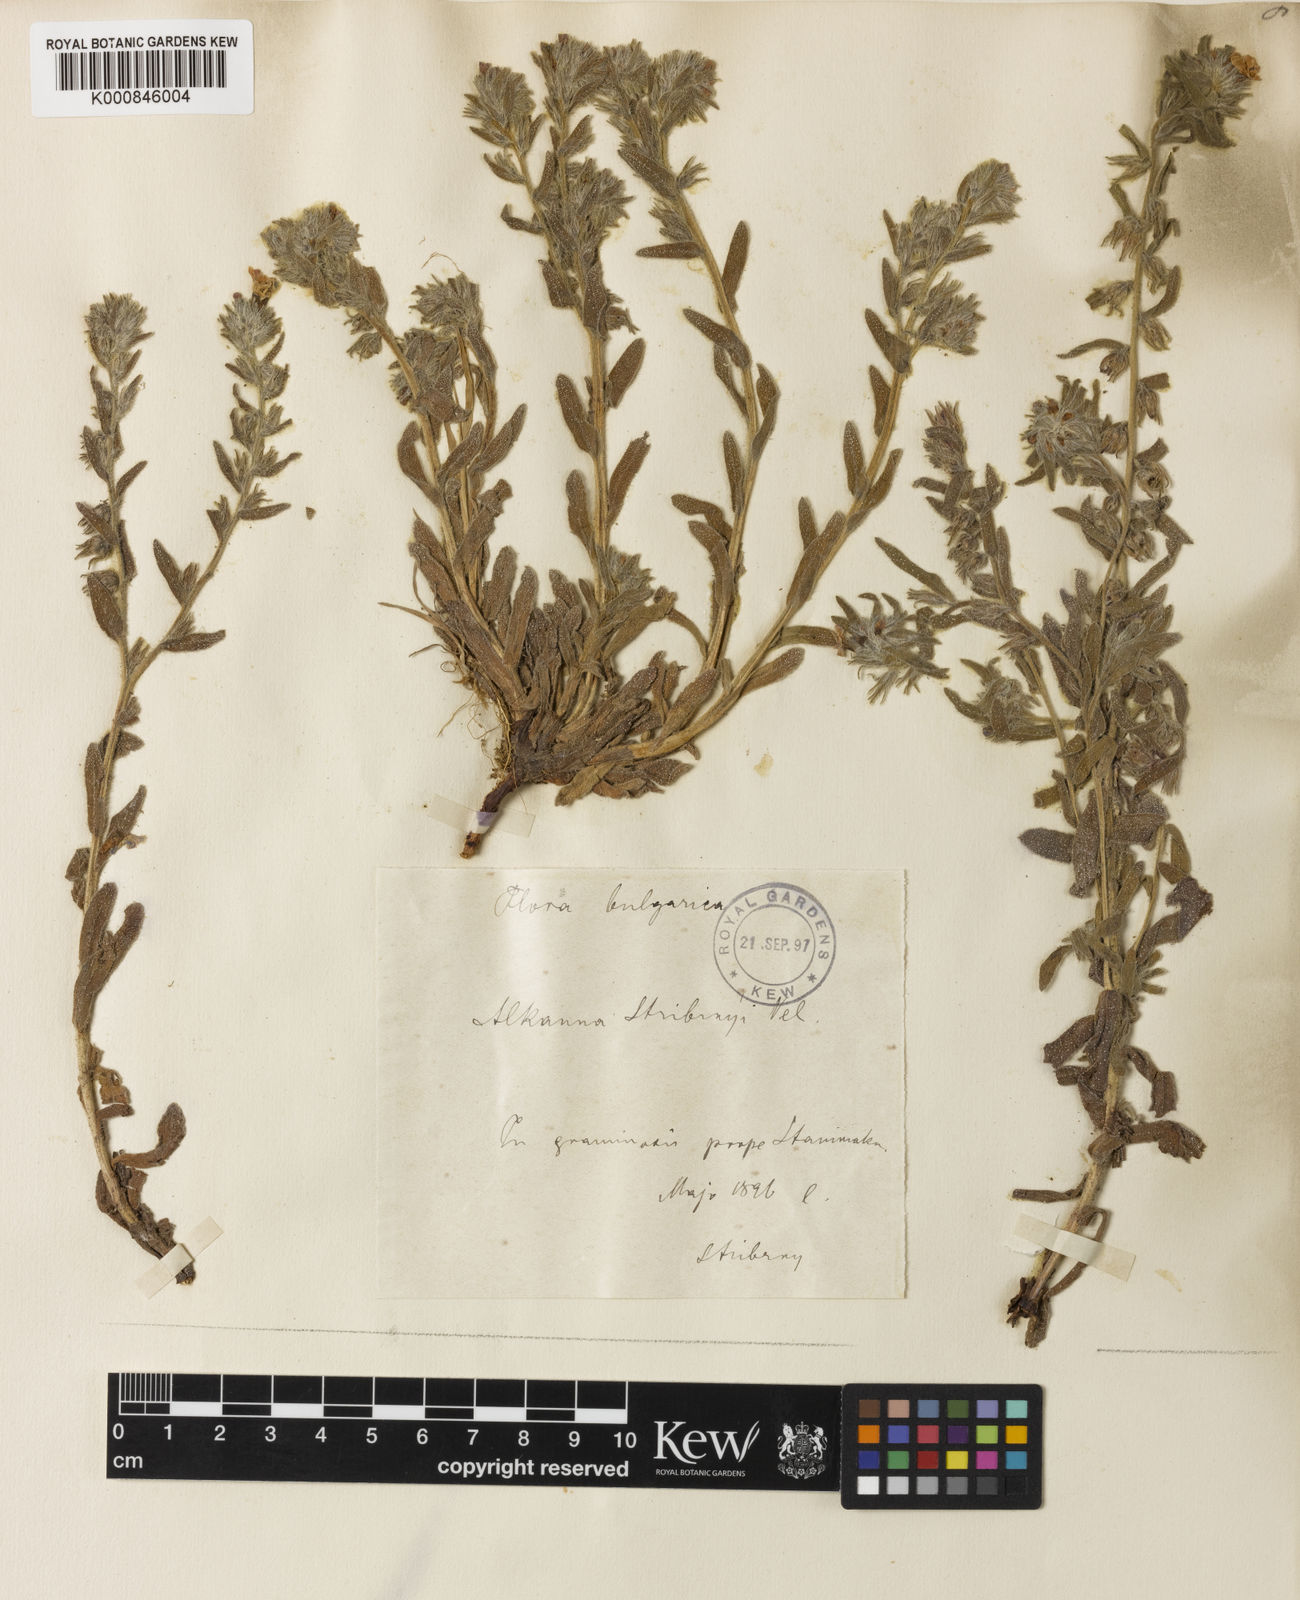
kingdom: Plantae
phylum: Tracheophyta
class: Magnoliopsida
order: Boraginales
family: Boraginaceae
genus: Alkanna
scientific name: Alkanna stribrnyi
